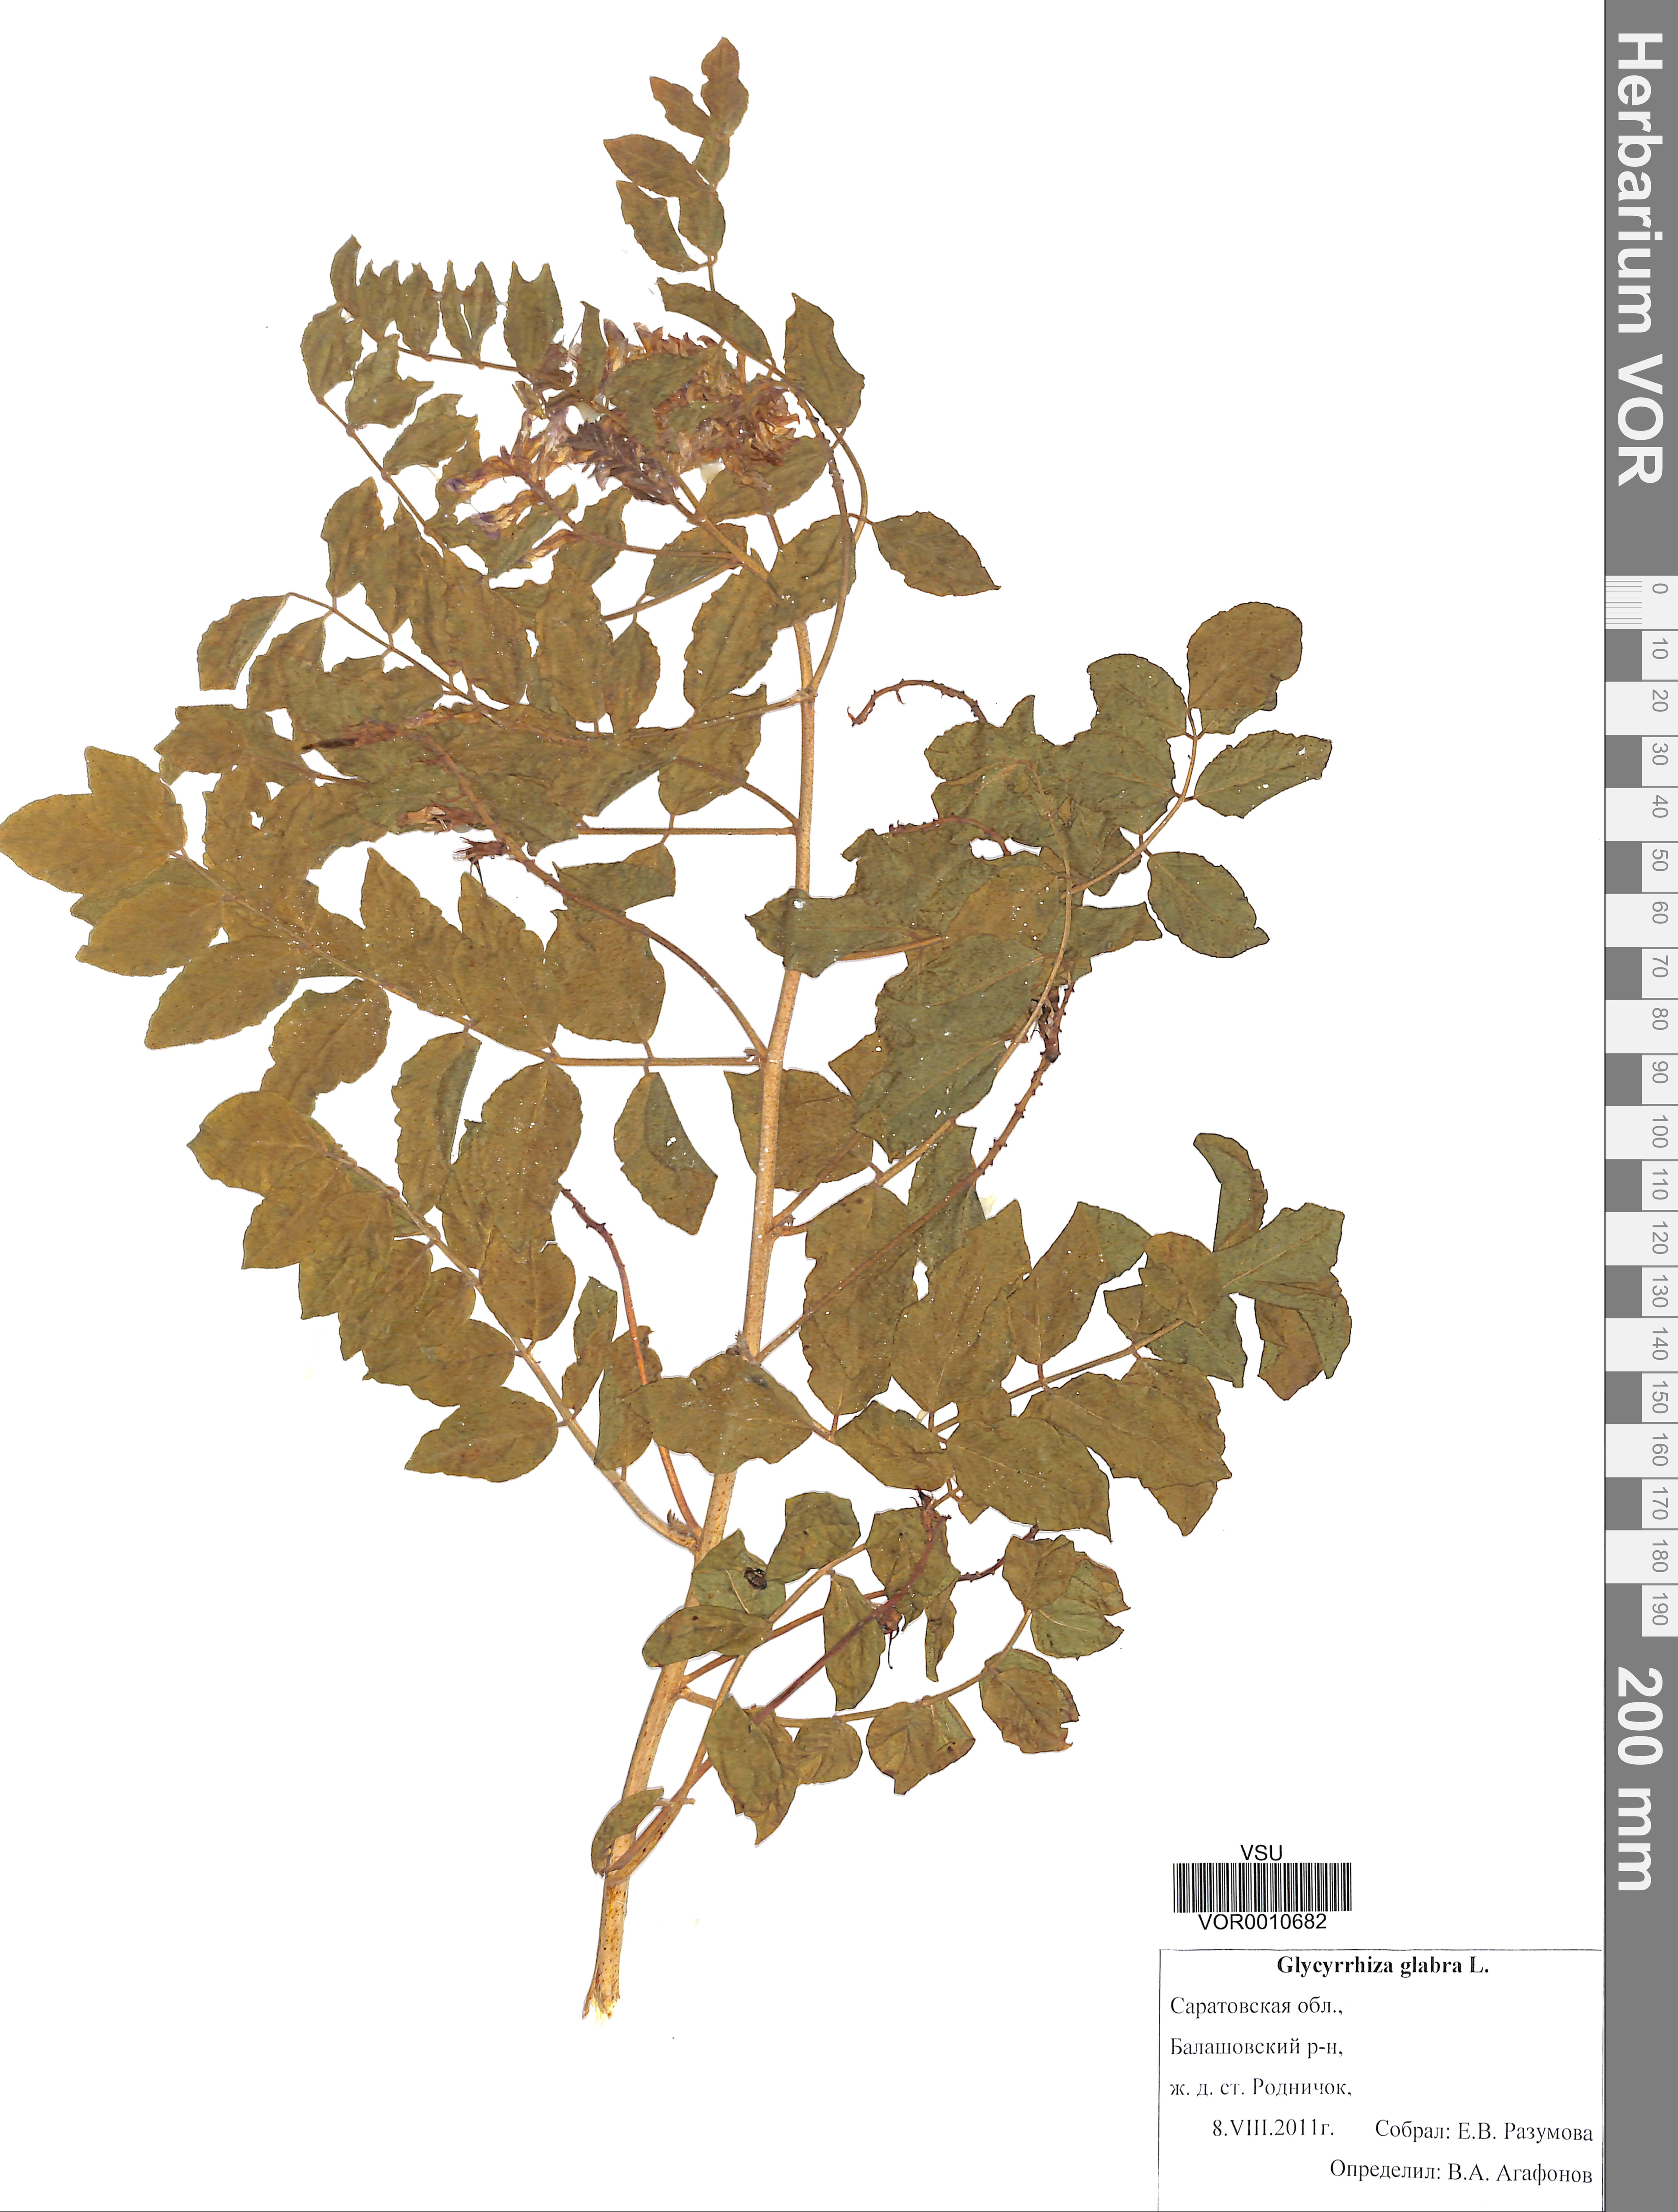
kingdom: Plantae
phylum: Tracheophyta
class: Magnoliopsida
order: Fabales
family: Fabaceae
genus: Glycyrrhiza
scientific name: Glycyrrhiza glabra
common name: Liquorice
